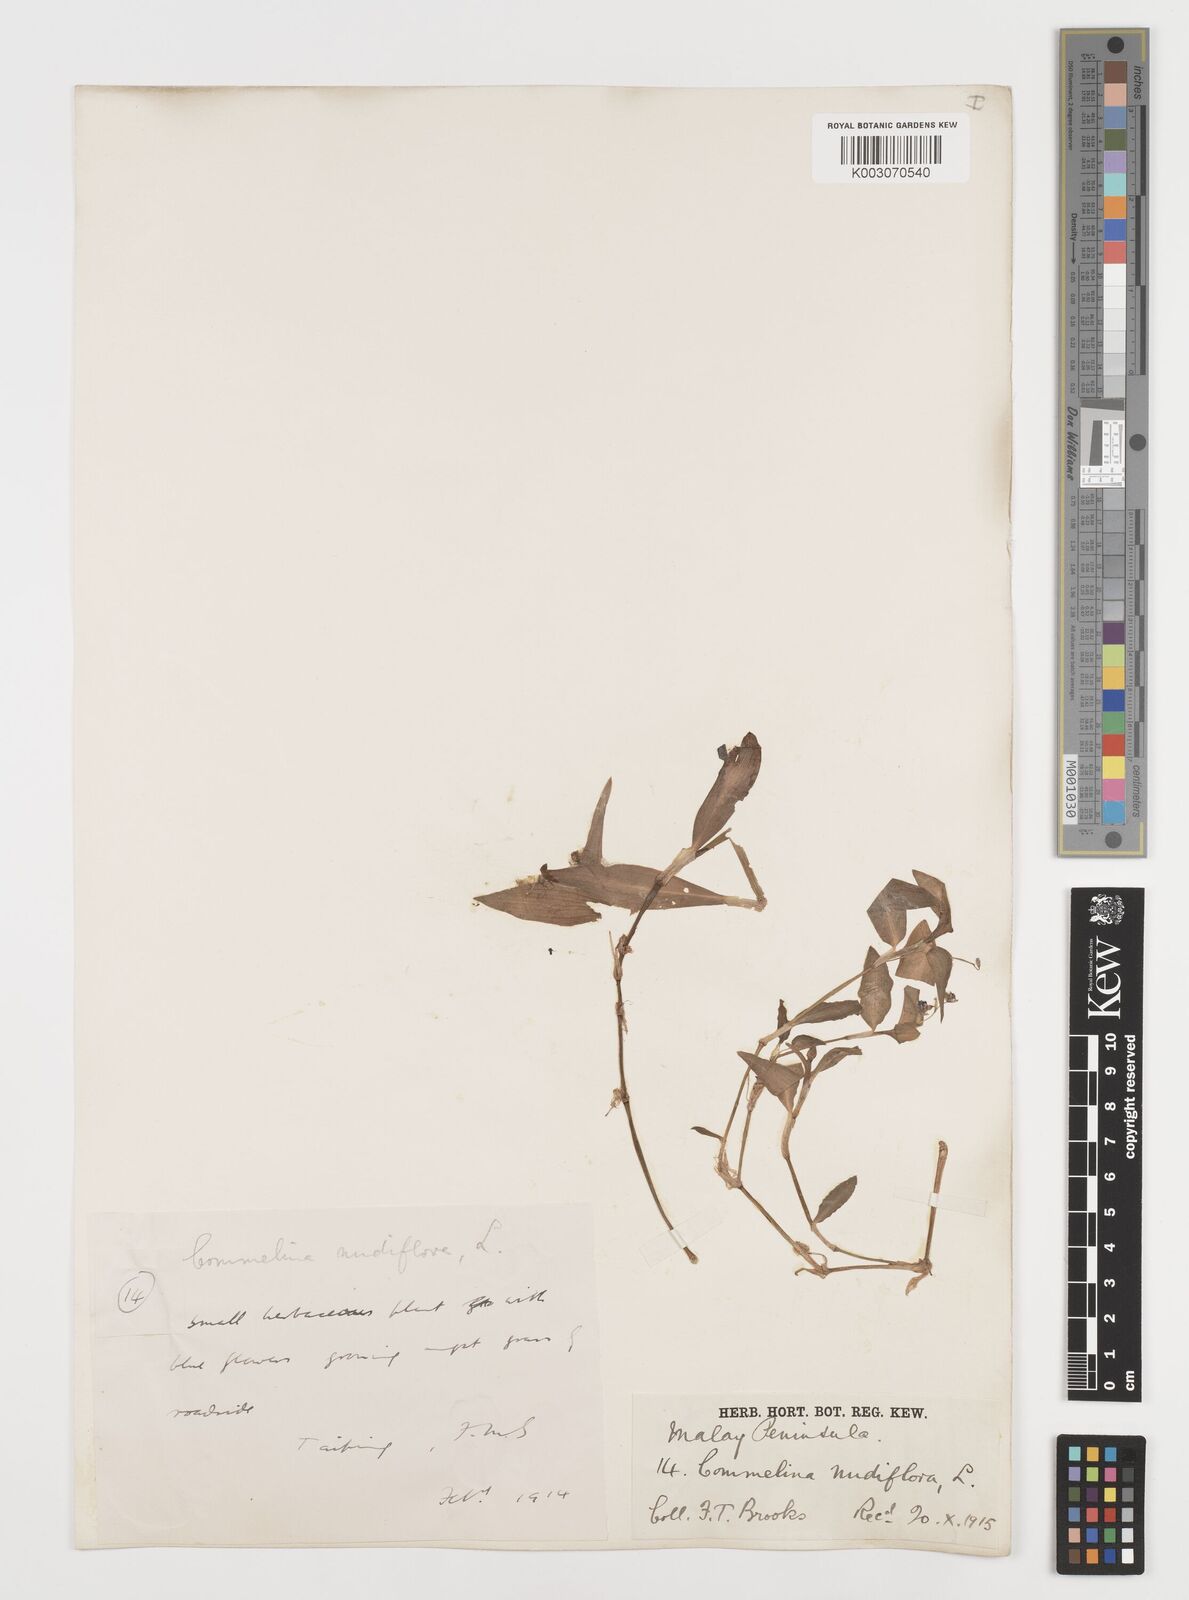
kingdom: Plantae
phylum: Tracheophyta
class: Liliopsida
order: Commelinales
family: Commelinaceae
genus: Commelina
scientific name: Commelina clavata
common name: Willow leaved dayflower
